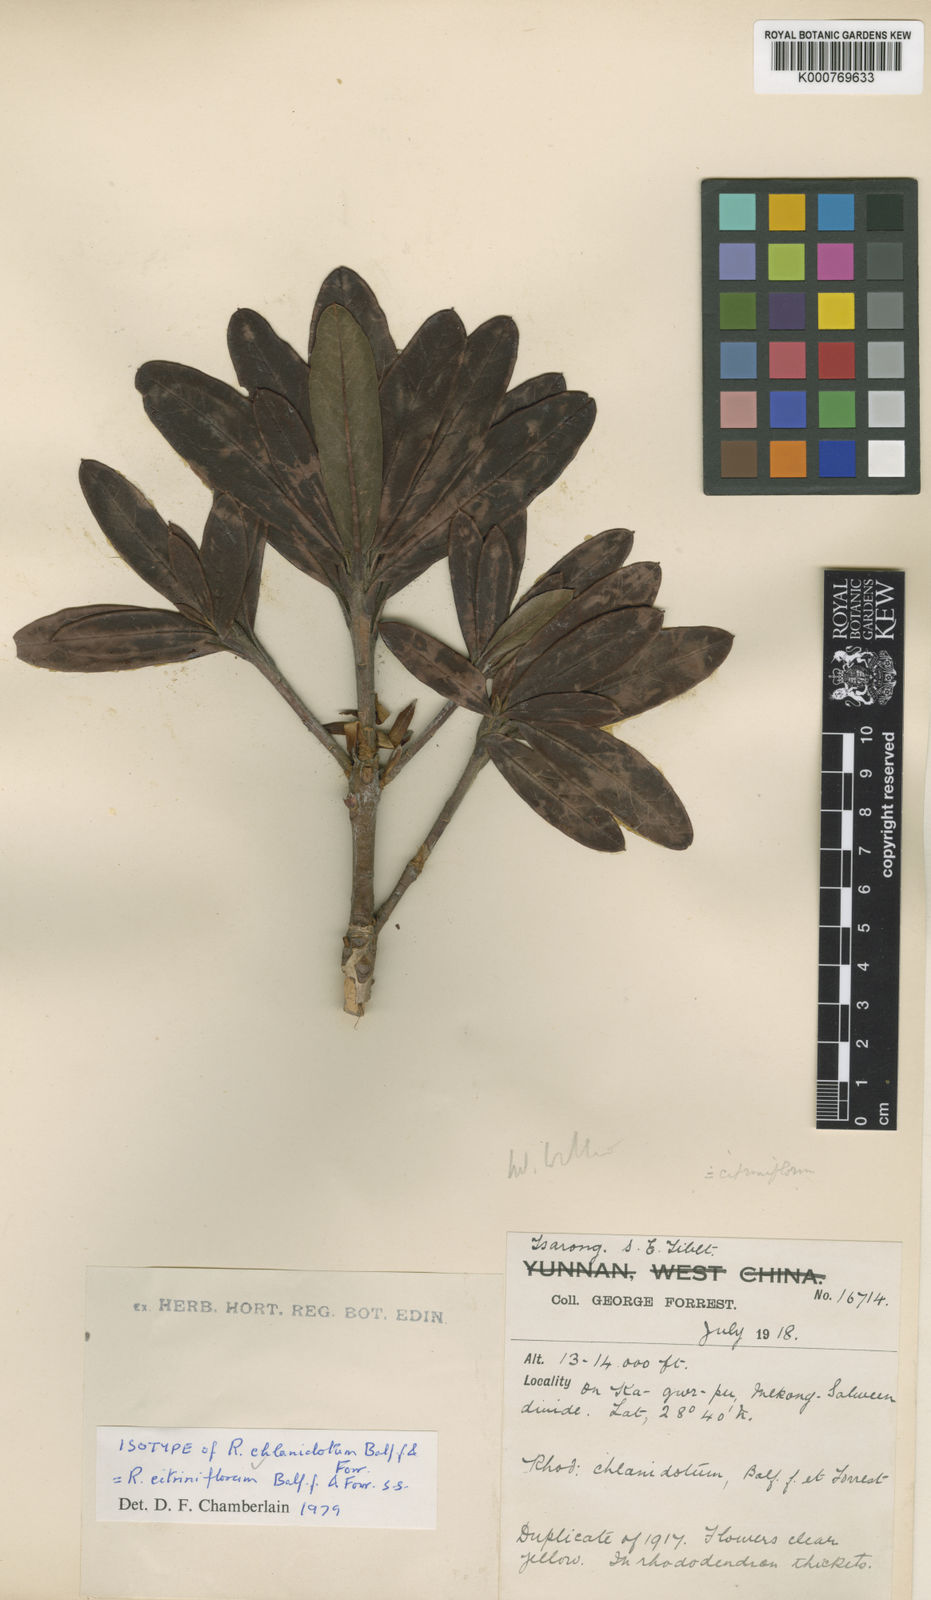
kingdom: Plantae
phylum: Tracheophyta
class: Magnoliopsida
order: Ericales
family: Ericaceae
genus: Rhododendron
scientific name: Rhododendron citriniflorum
